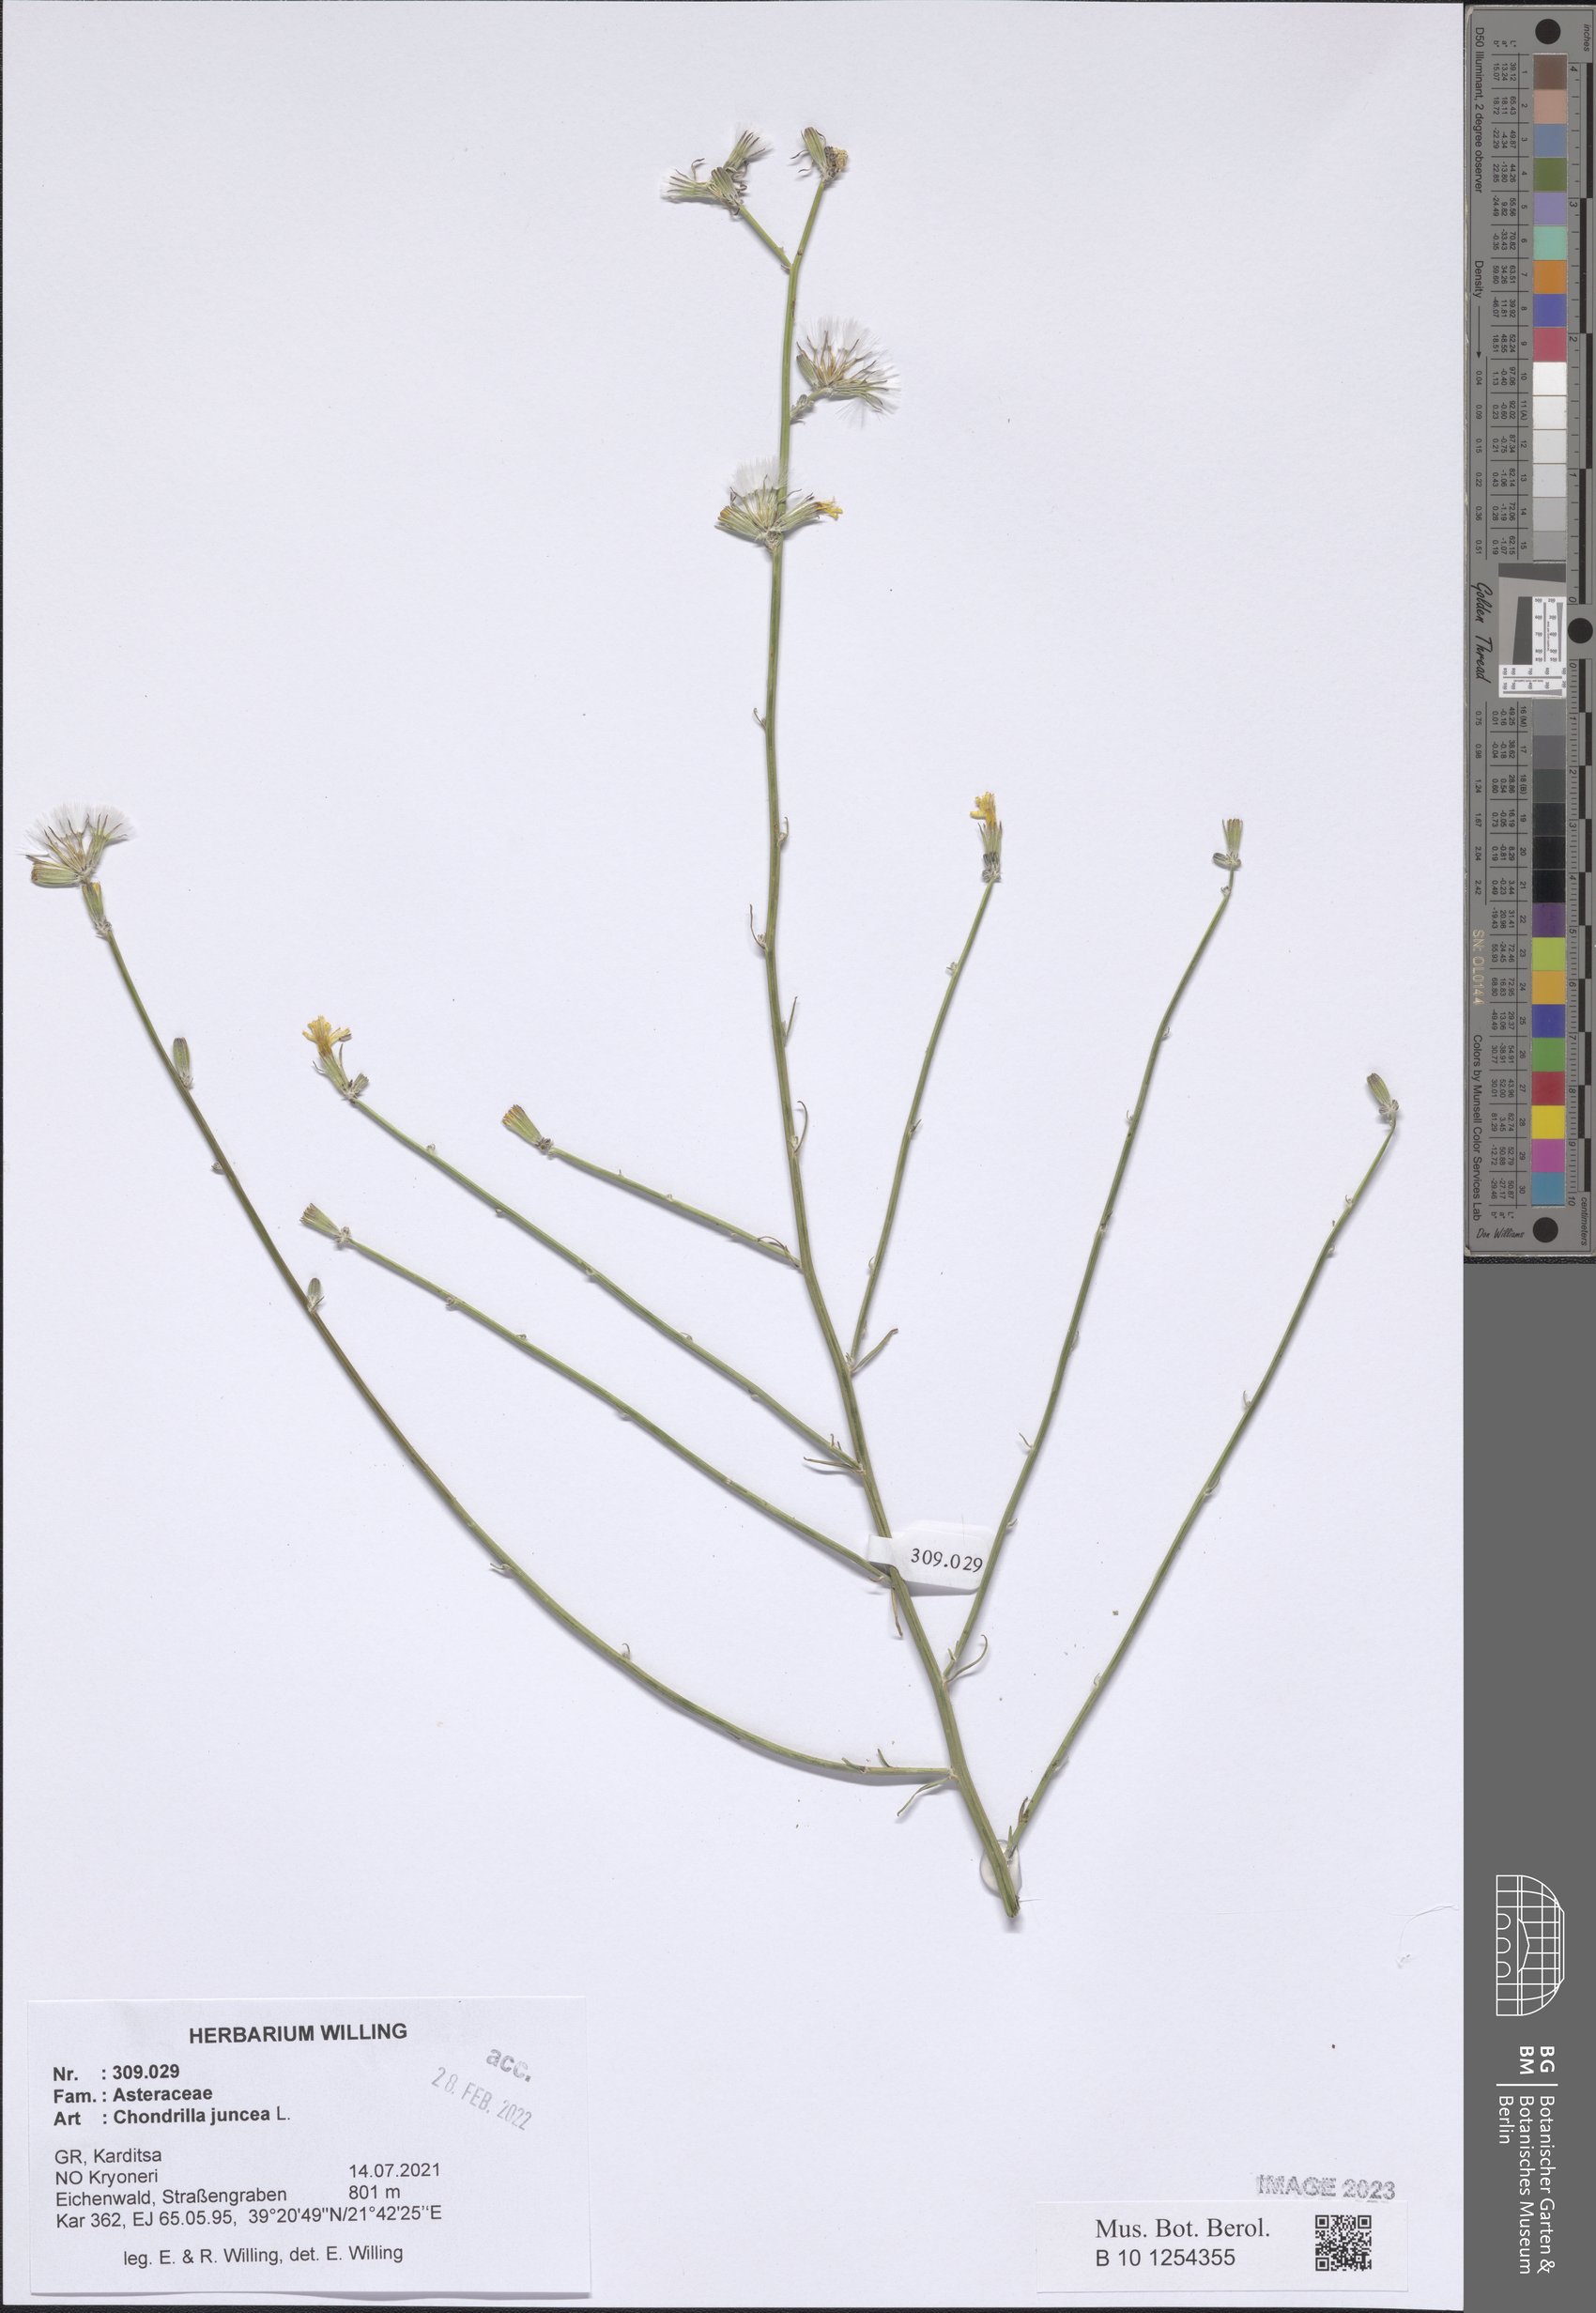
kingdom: Plantae
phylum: Tracheophyta
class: Magnoliopsida
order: Asterales
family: Asteraceae
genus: Chondrilla
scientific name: Chondrilla juncea
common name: Skeleton weed
